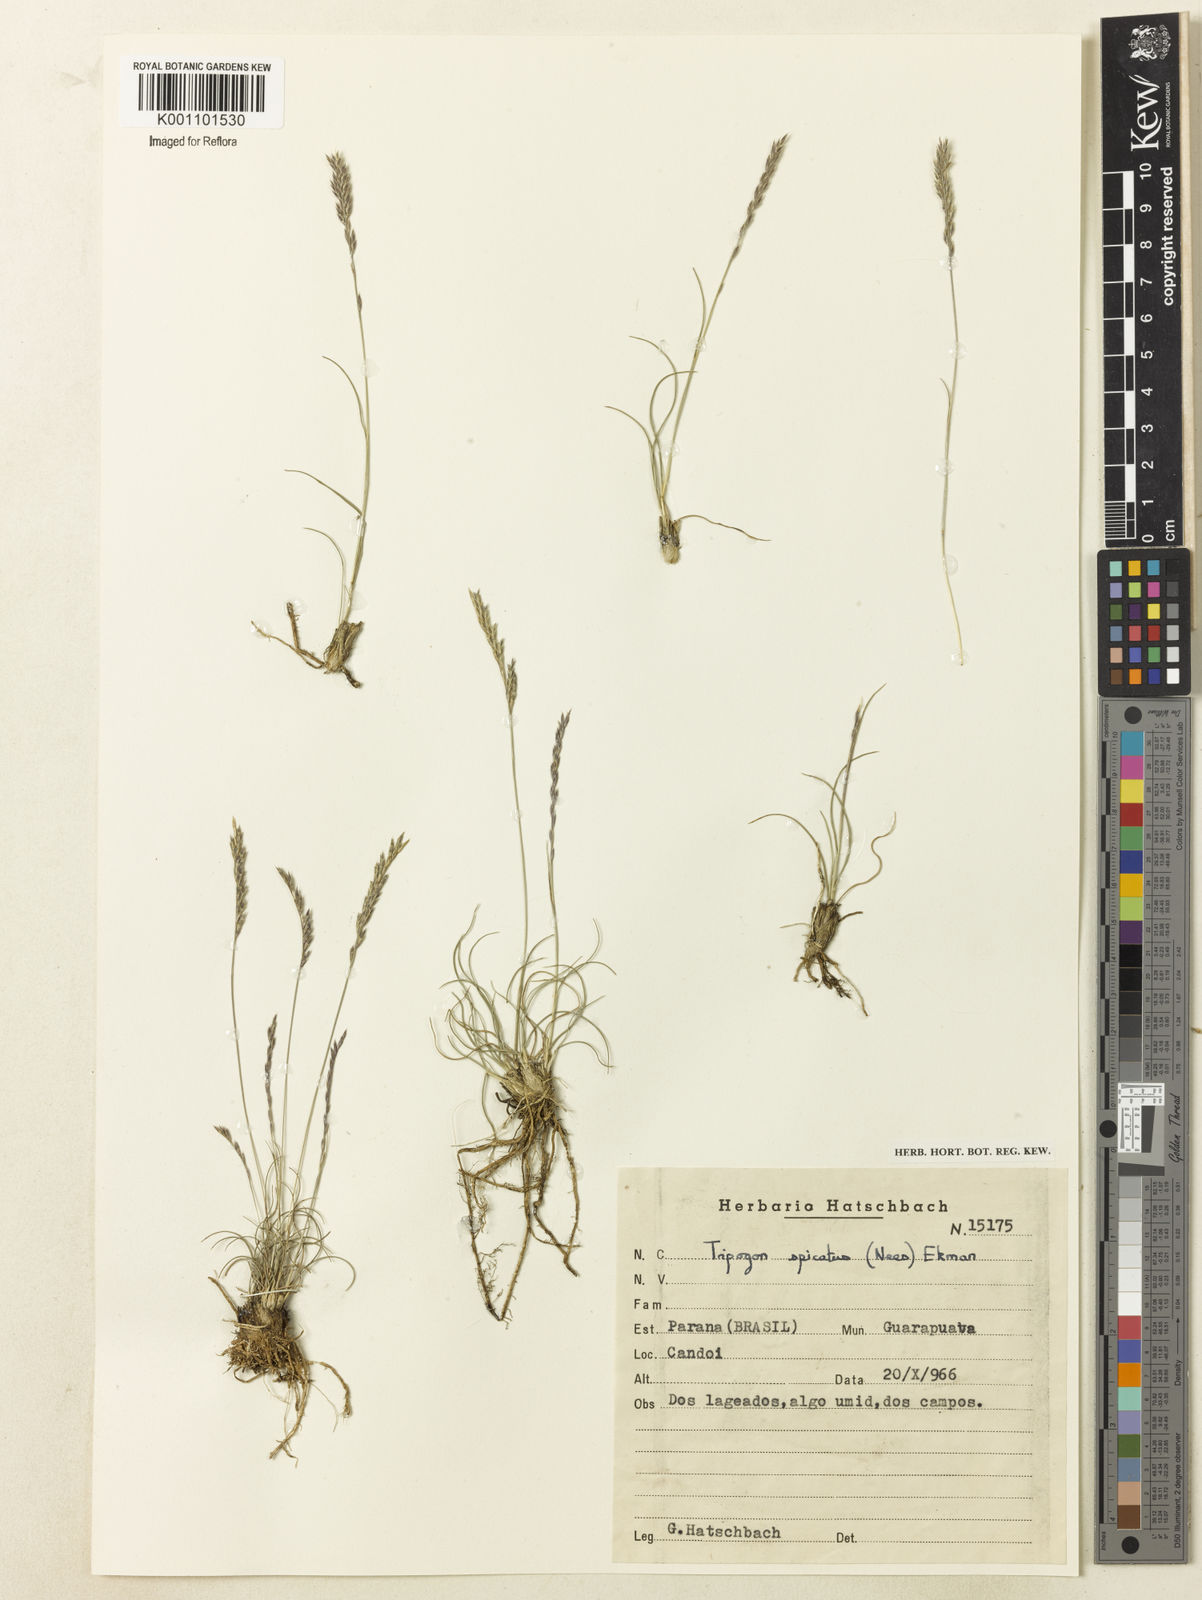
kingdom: Plantae
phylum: Tracheophyta
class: Liliopsida
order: Poales
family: Poaceae
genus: Tripogonella
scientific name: Tripogonella spicata
